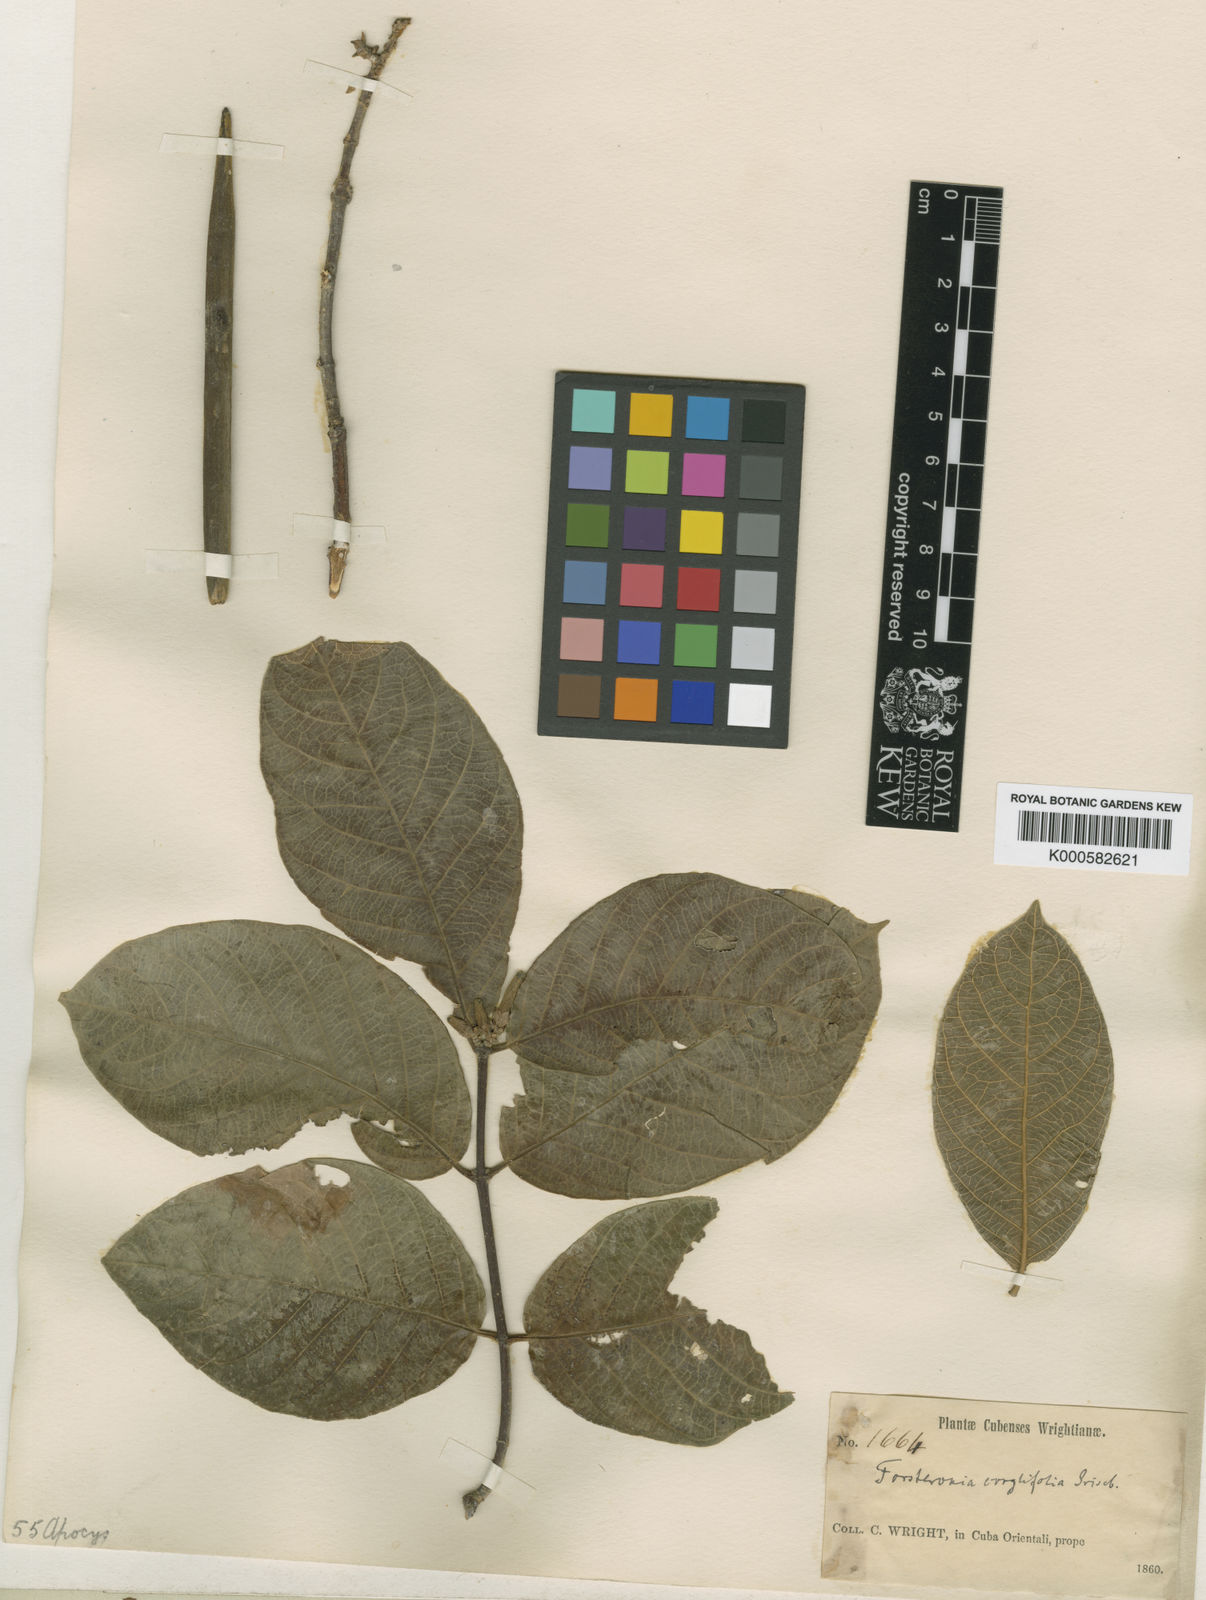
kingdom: Plantae
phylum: Tracheophyta
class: Magnoliopsida
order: Gentianales
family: Apocynaceae
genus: Forsteronia
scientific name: Forsteronia spicata
